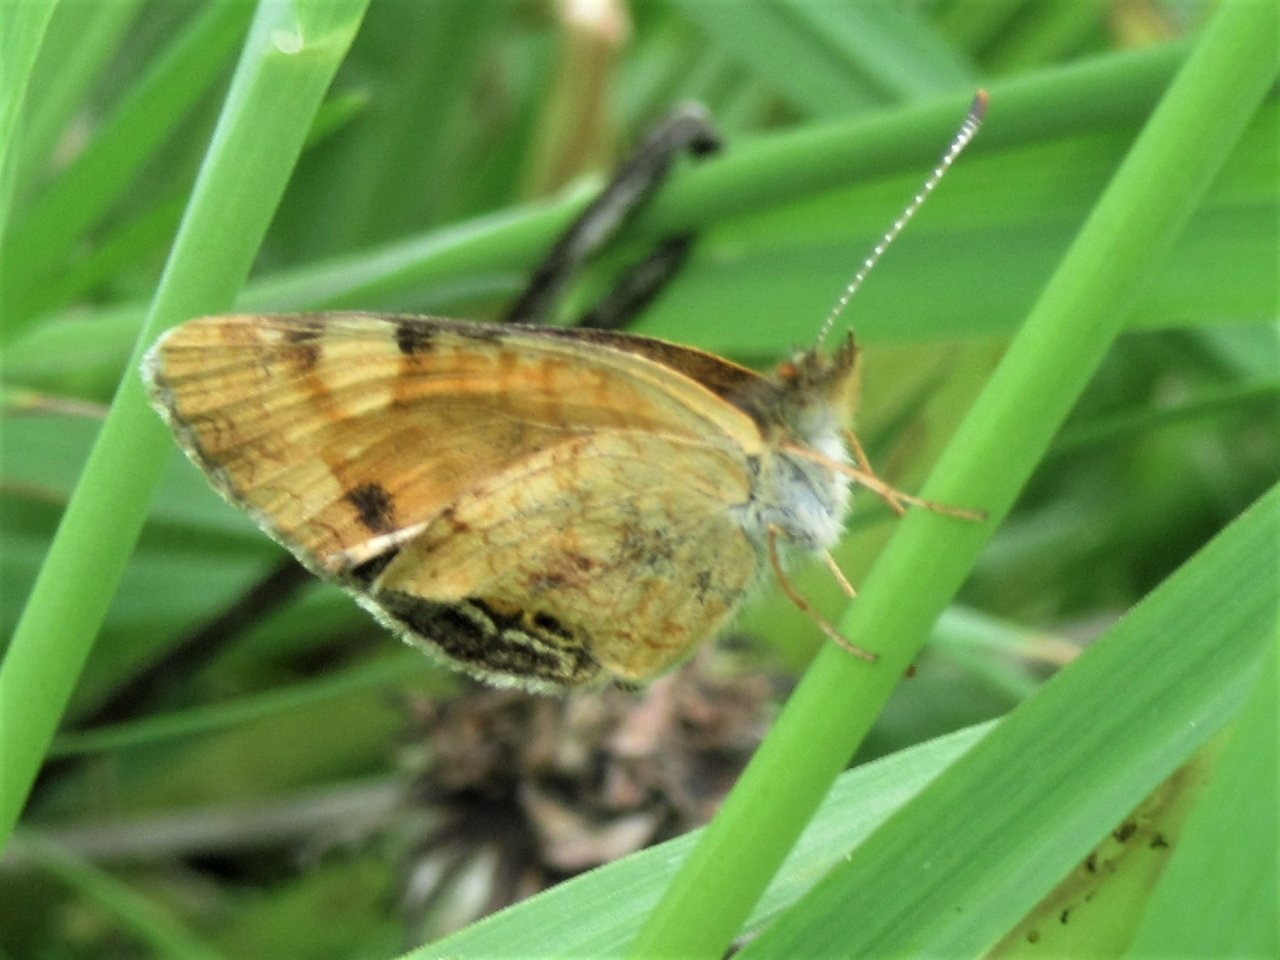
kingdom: Animalia
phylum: Arthropoda
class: Insecta
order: Lepidoptera
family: Nymphalidae
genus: Phyciodes
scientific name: Phyciodes tharos
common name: Pearl Crescent
